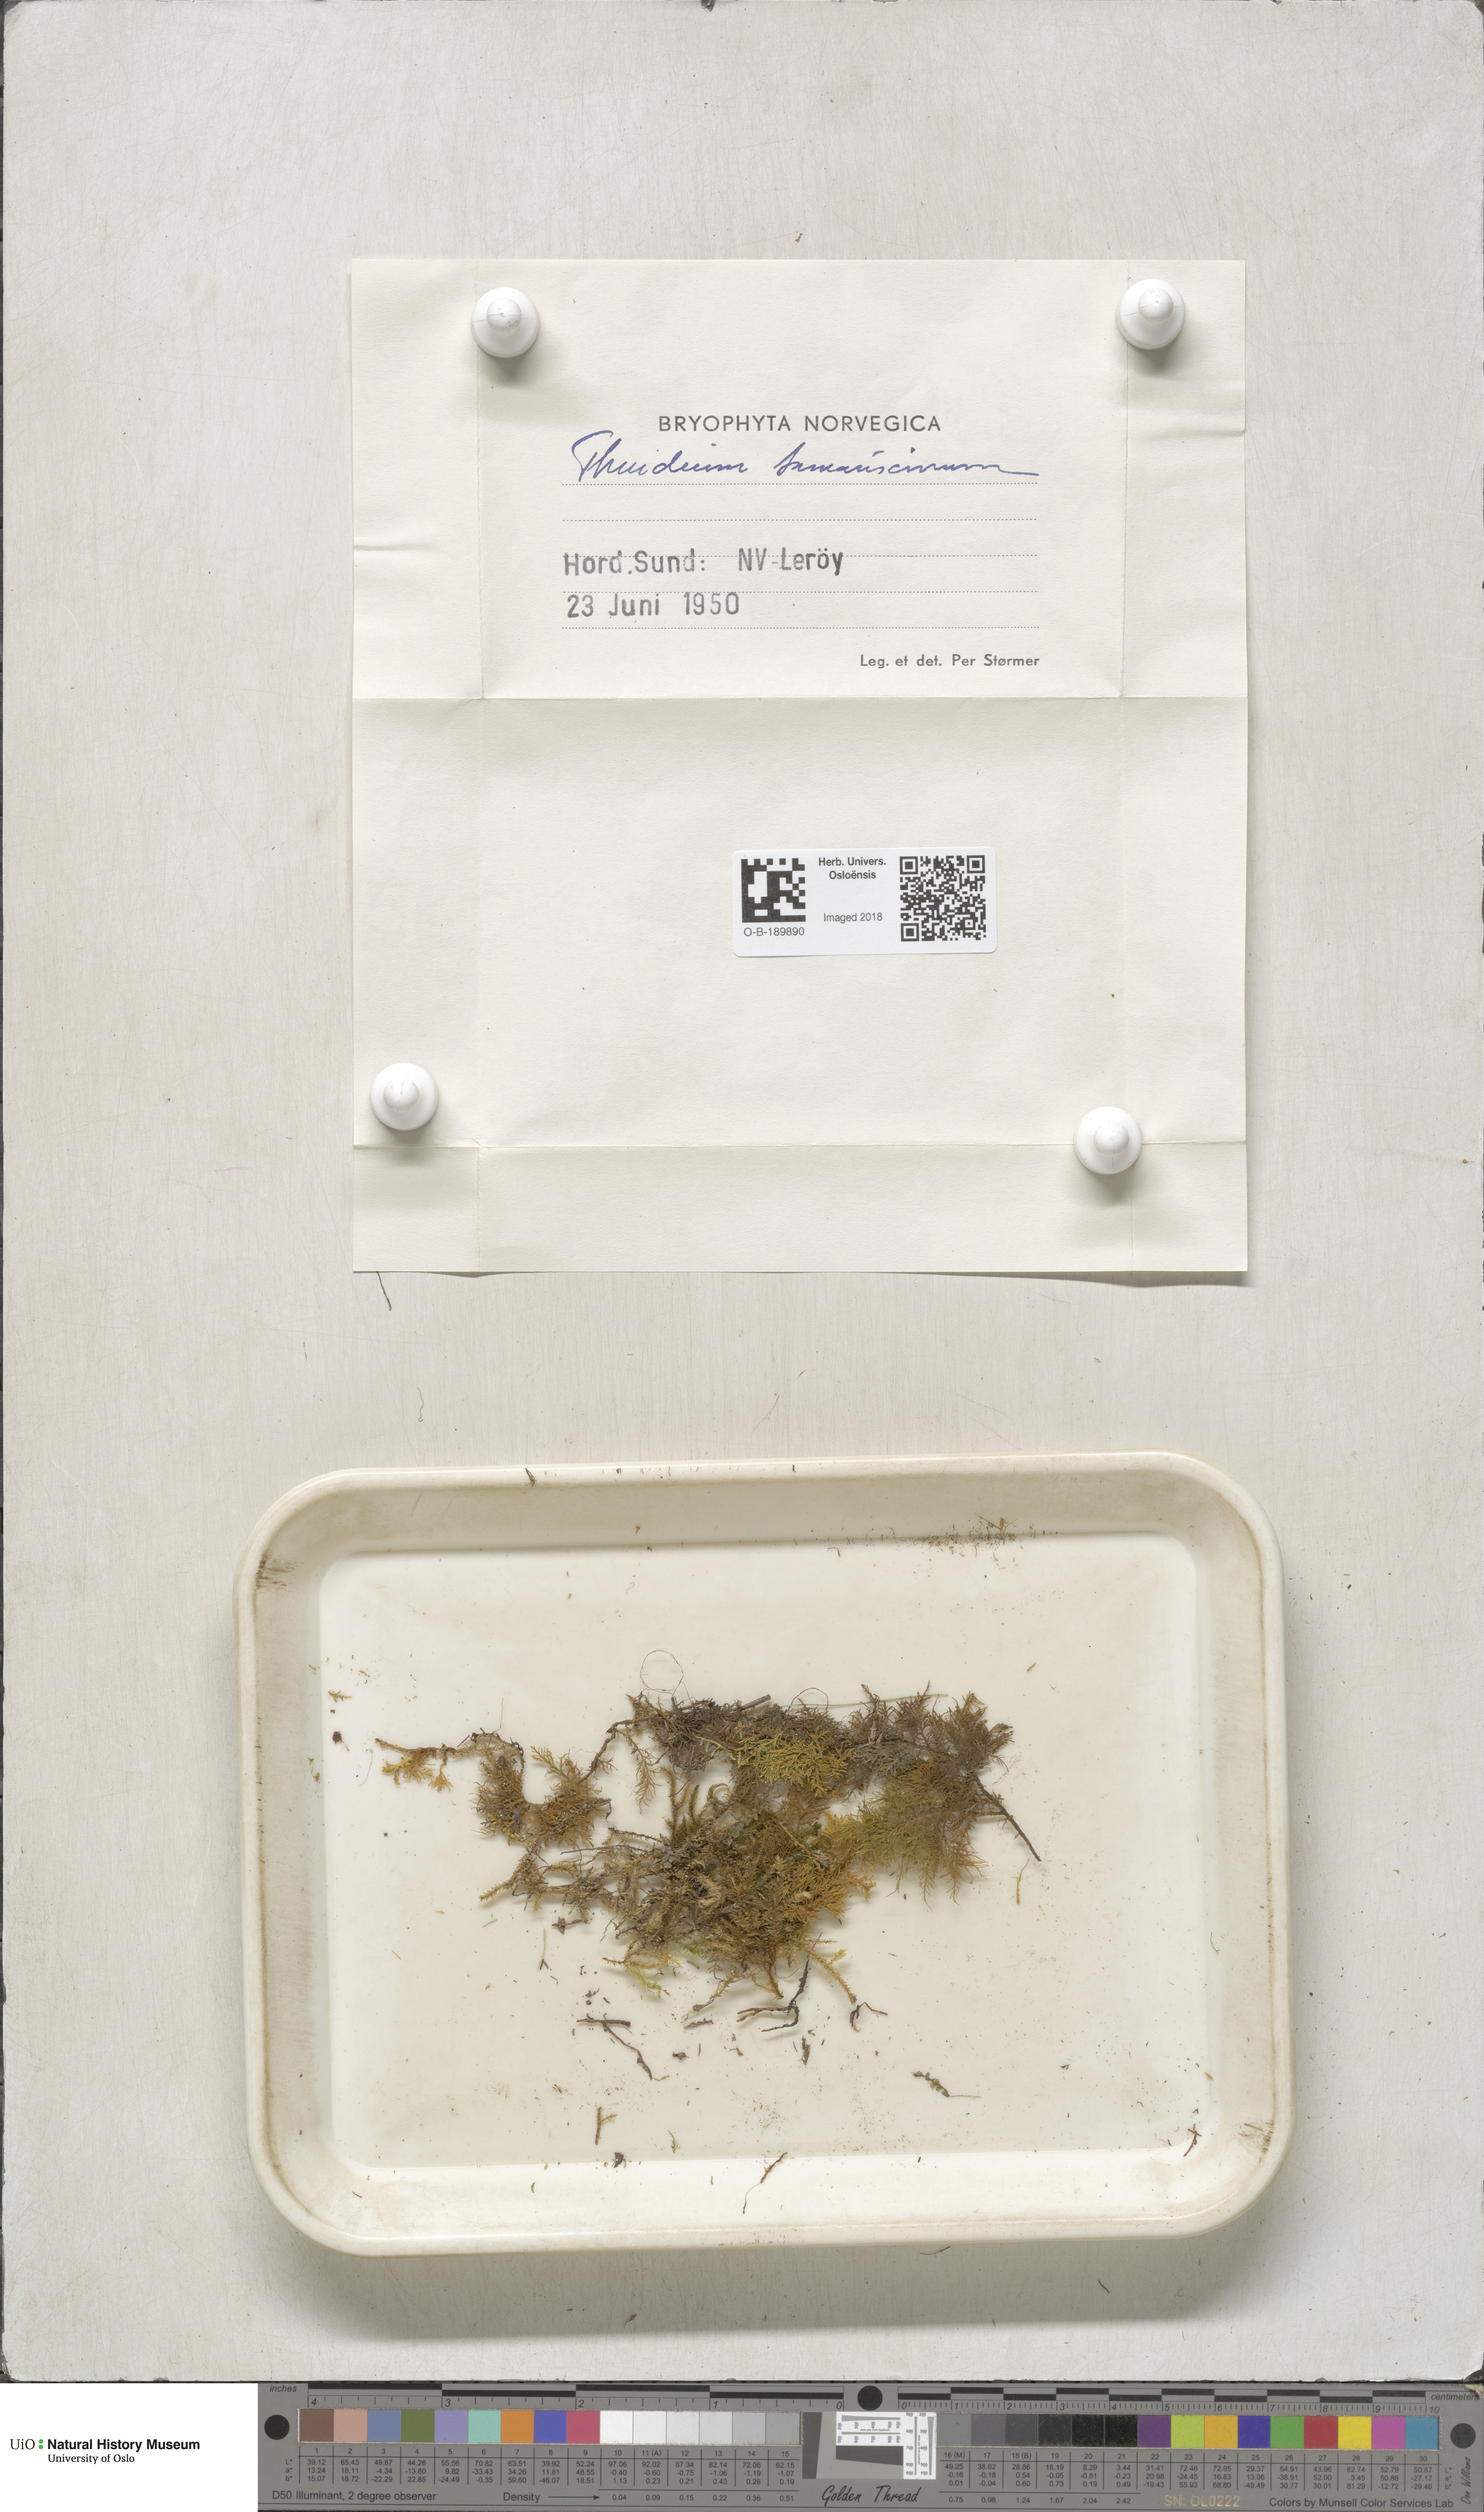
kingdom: Plantae
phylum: Bryophyta
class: Bryopsida
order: Hypnales
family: Thuidiaceae
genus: Thuidium
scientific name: Thuidium tamariscinum
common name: Common tamarisk-moss
